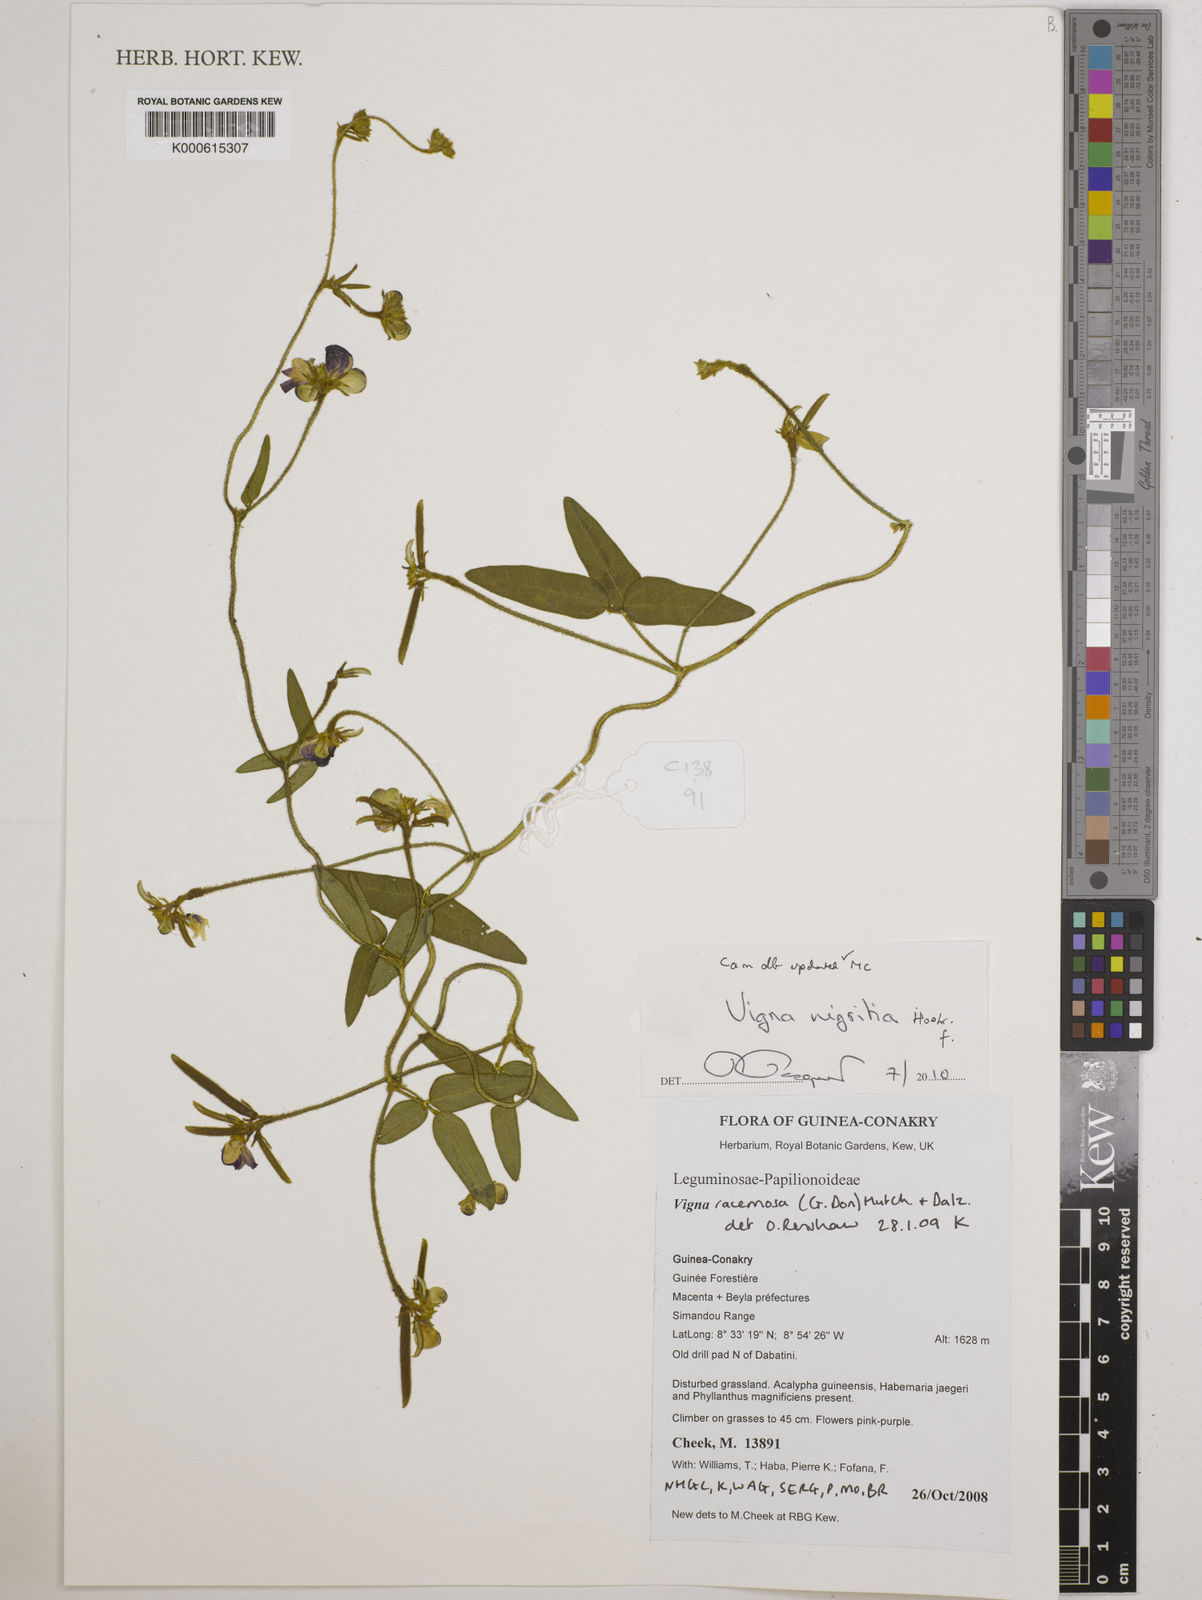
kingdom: Plantae
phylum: Tracheophyta
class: Magnoliopsida
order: Fabales
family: Fabaceae
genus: Vigna
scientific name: Vigna nigritia
